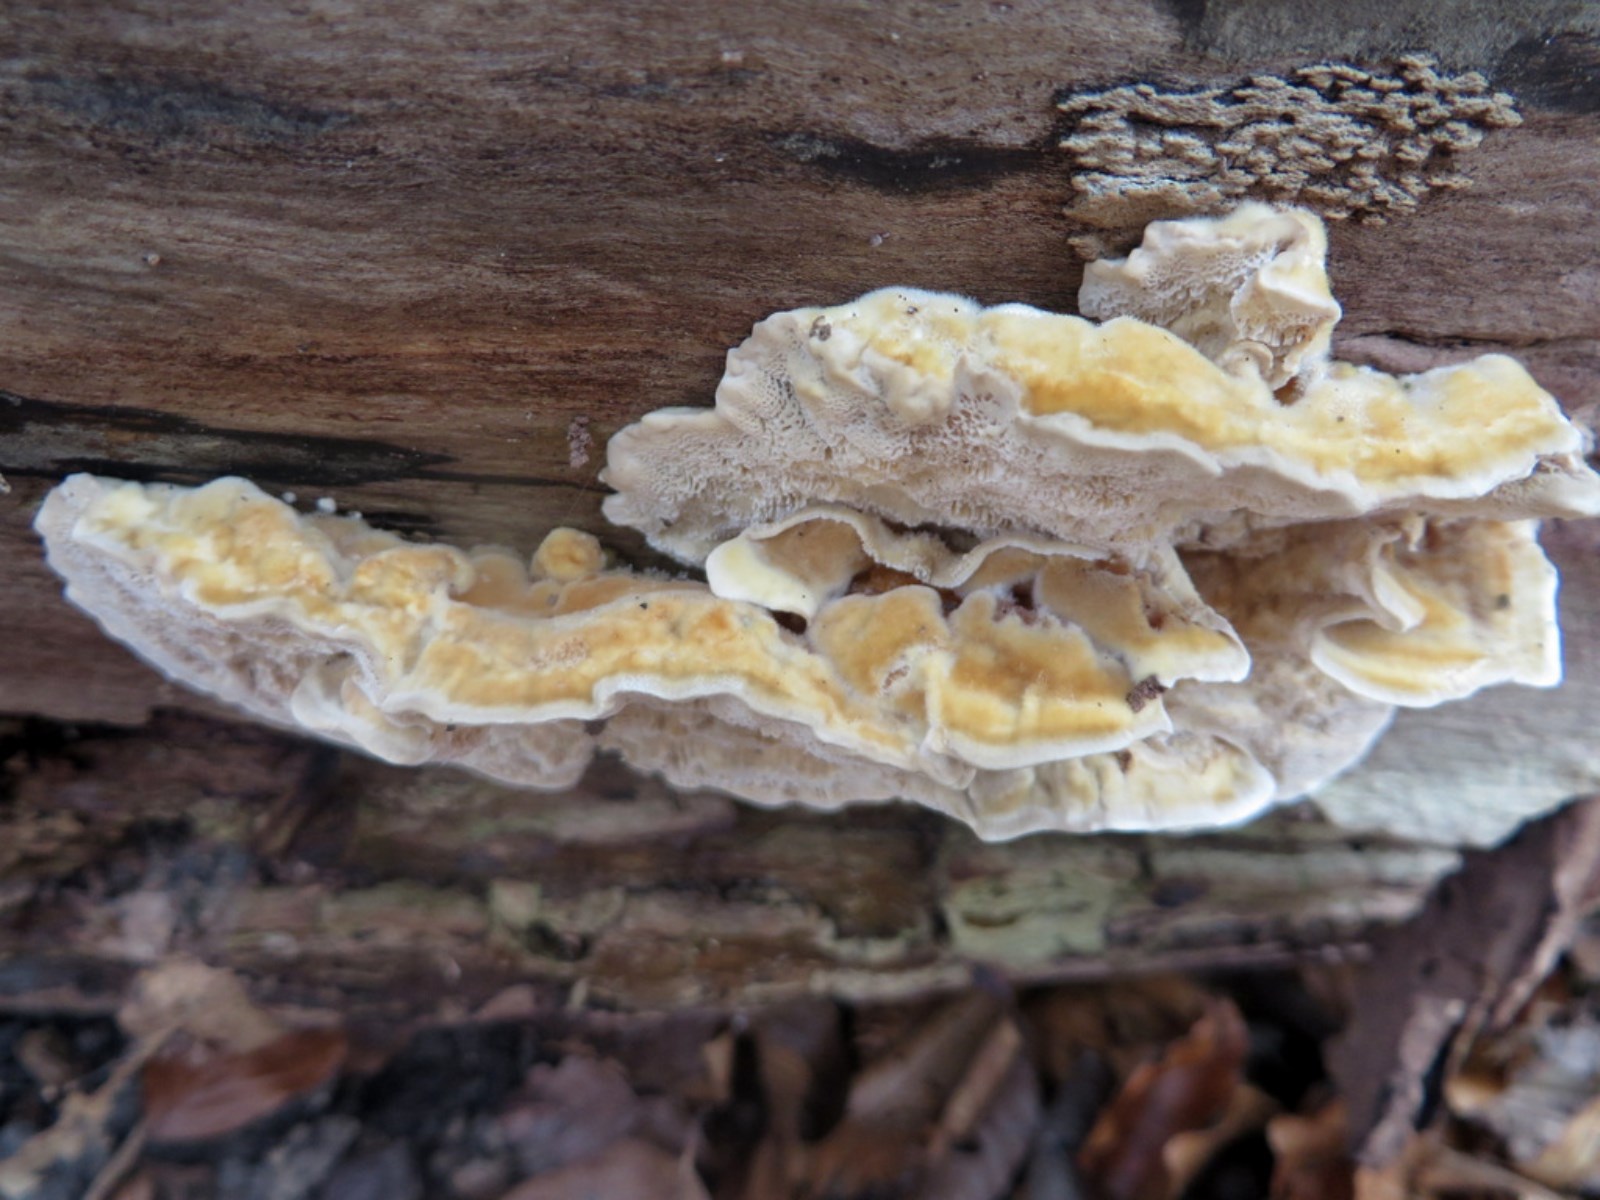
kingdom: Fungi
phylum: Basidiomycota
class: Agaricomycetes
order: Polyporales
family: Polyporaceae
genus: Trametes
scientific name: Trametes
